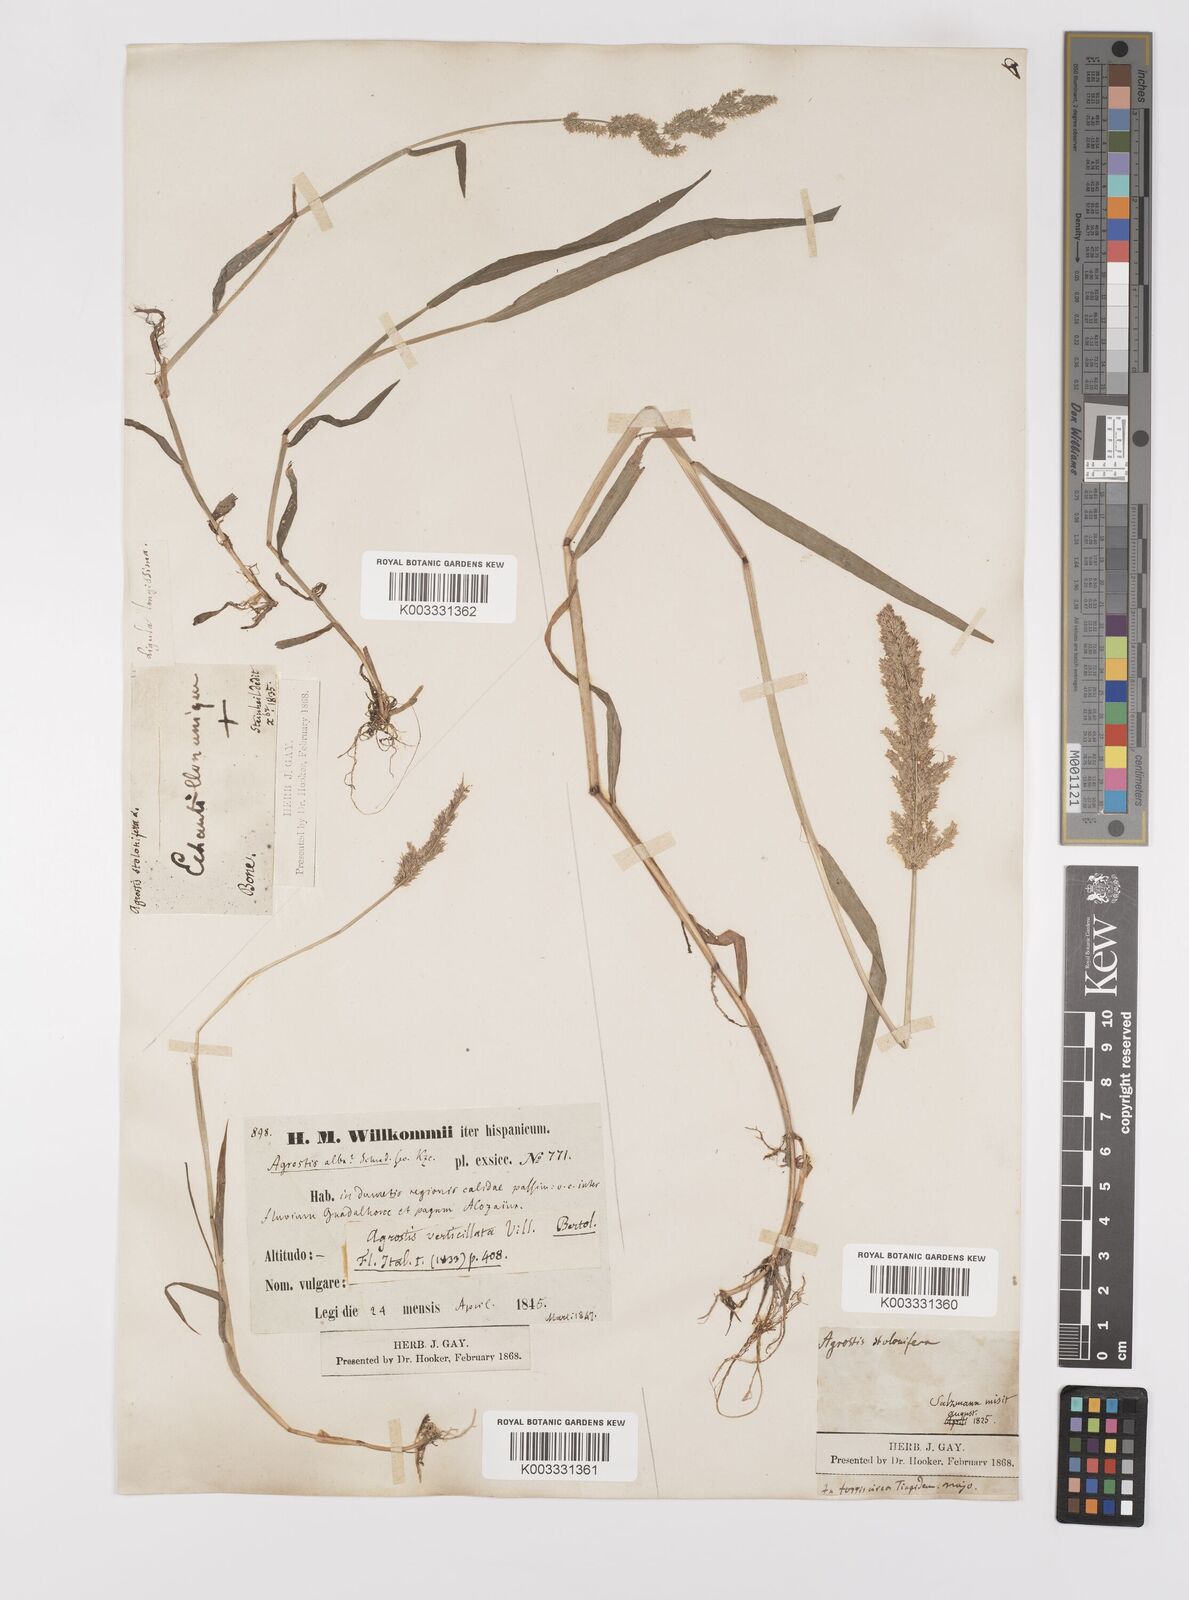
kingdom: Plantae
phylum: Tracheophyta
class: Liliopsida
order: Poales
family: Poaceae
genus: Polypogon
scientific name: Polypogon viridis
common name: Water bent
